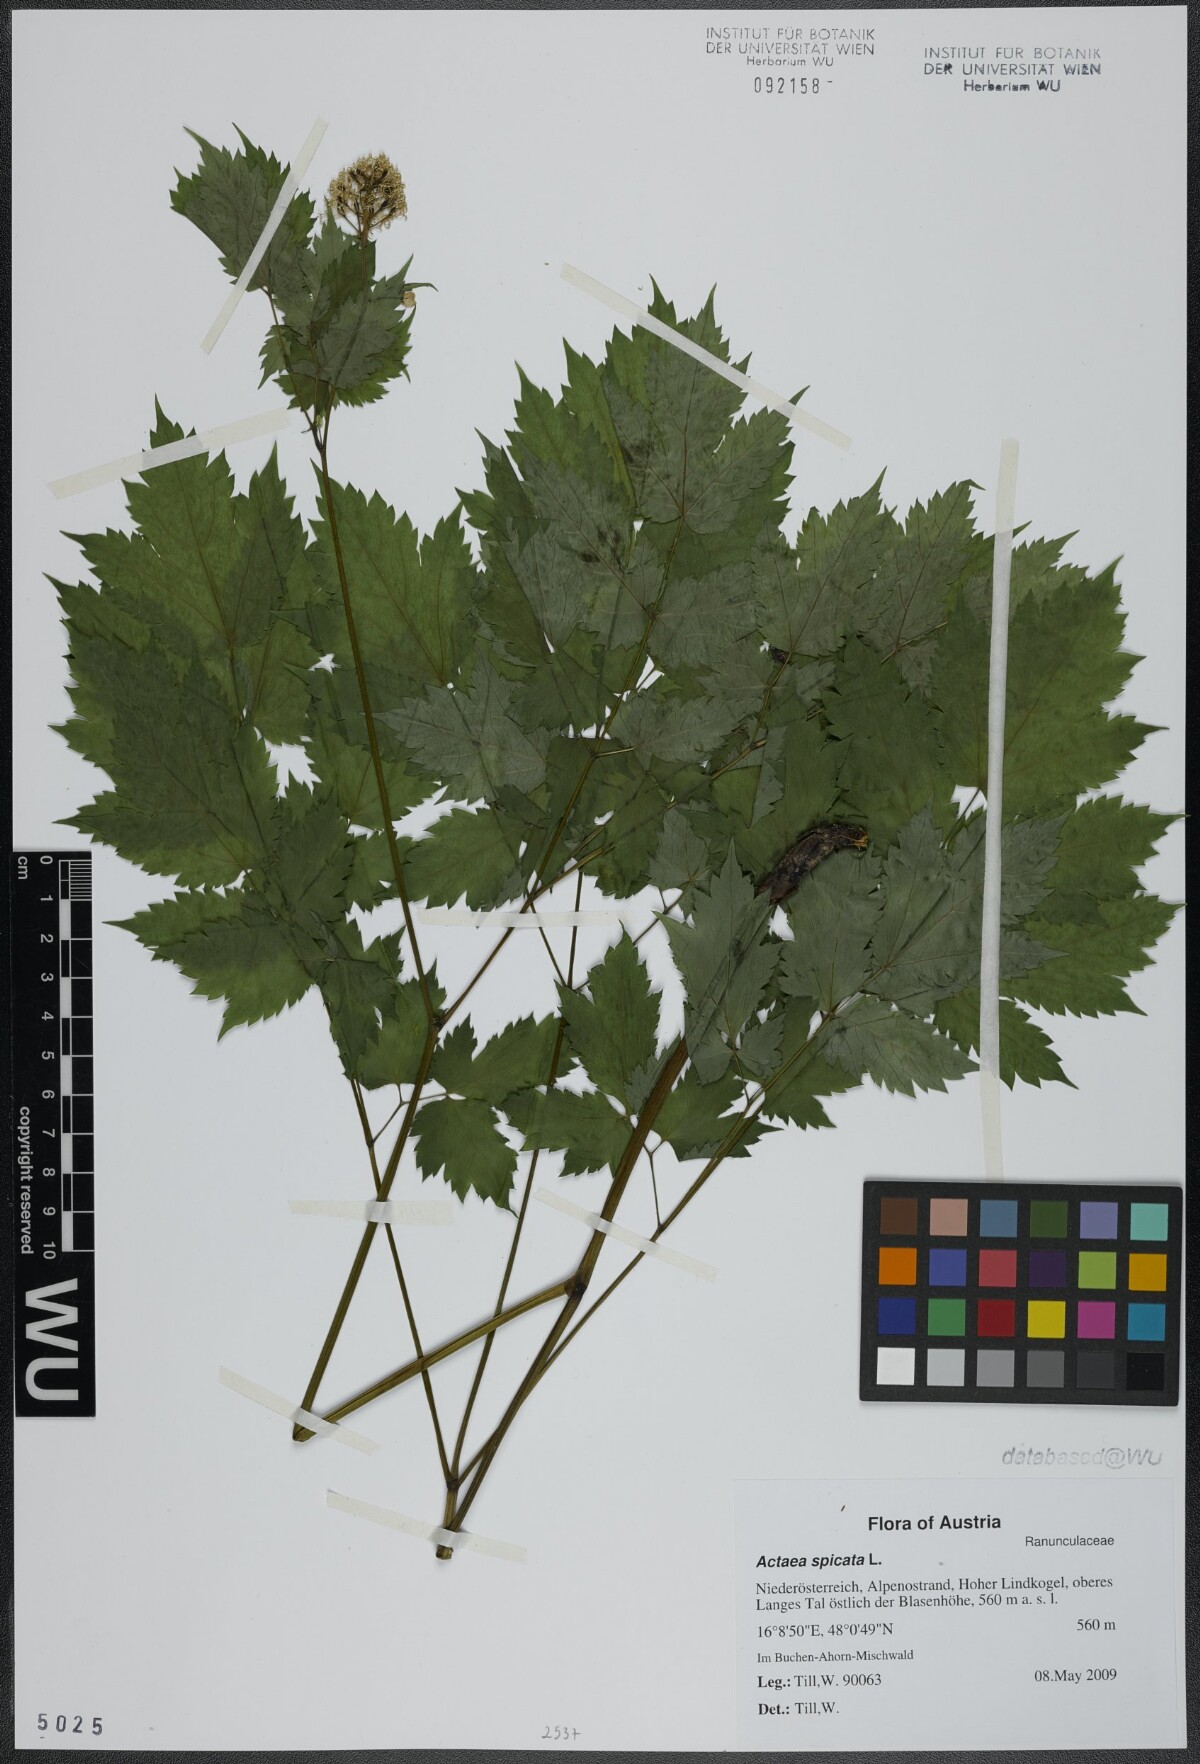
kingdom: Plantae
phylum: Tracheophyta
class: Magnoliopsida
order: Ranunculales
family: Ranunculaceae
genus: Actaea
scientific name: Actaea spicata
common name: Baneberry
